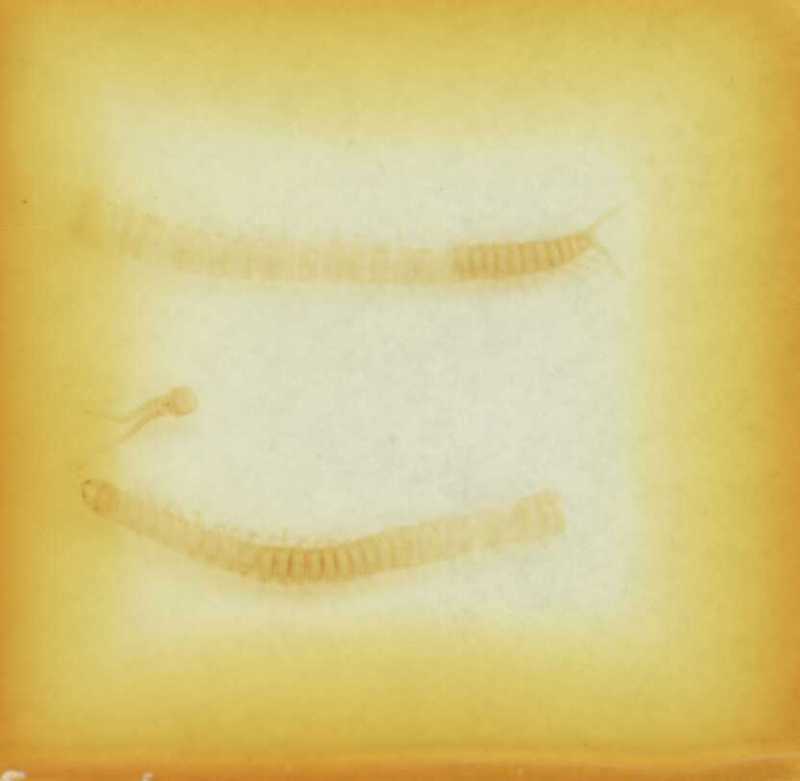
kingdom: Animalia
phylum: Arthropoda
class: Chilopoda
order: Geophilomorpha
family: Geophilidae
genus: Clinopodes
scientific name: Clinopodes trebevicensis
